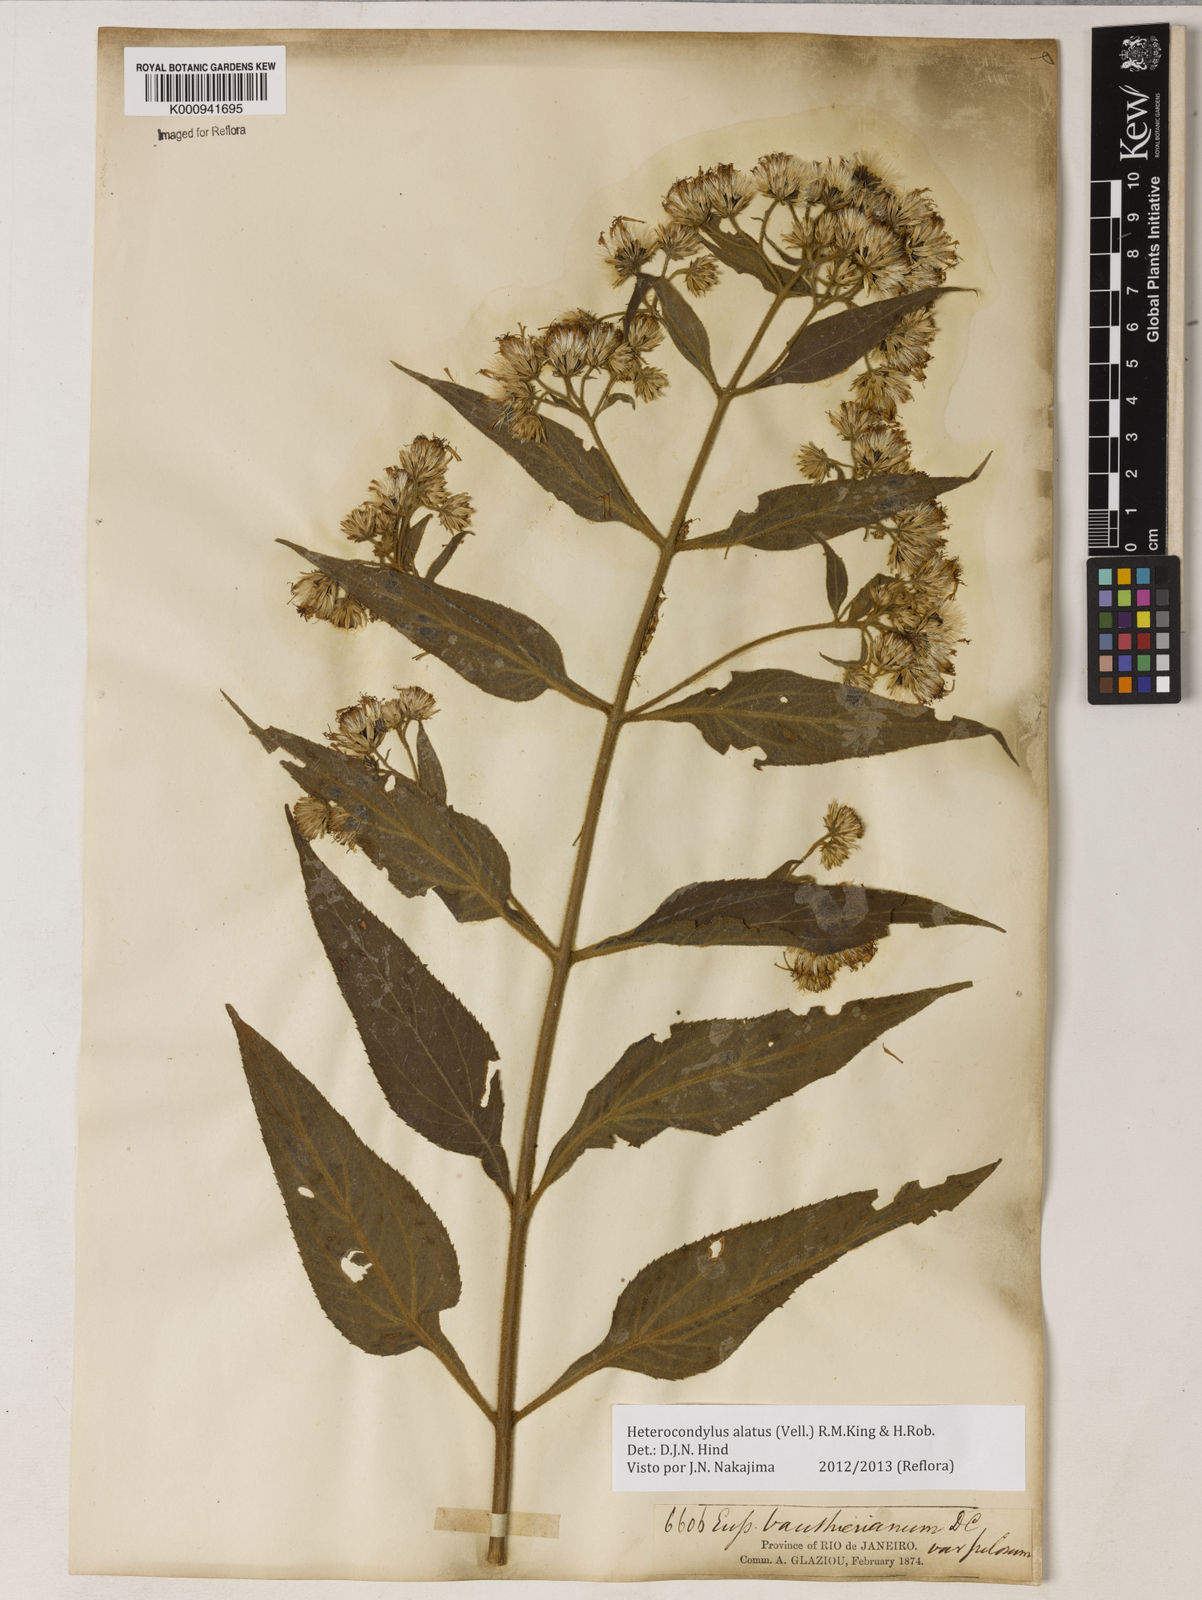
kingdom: Plantae
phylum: Tracheophyta
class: Magnoliopsida
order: Asterales
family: Asteraceae
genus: Heterocondylus
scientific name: Heterocondylus alatus
